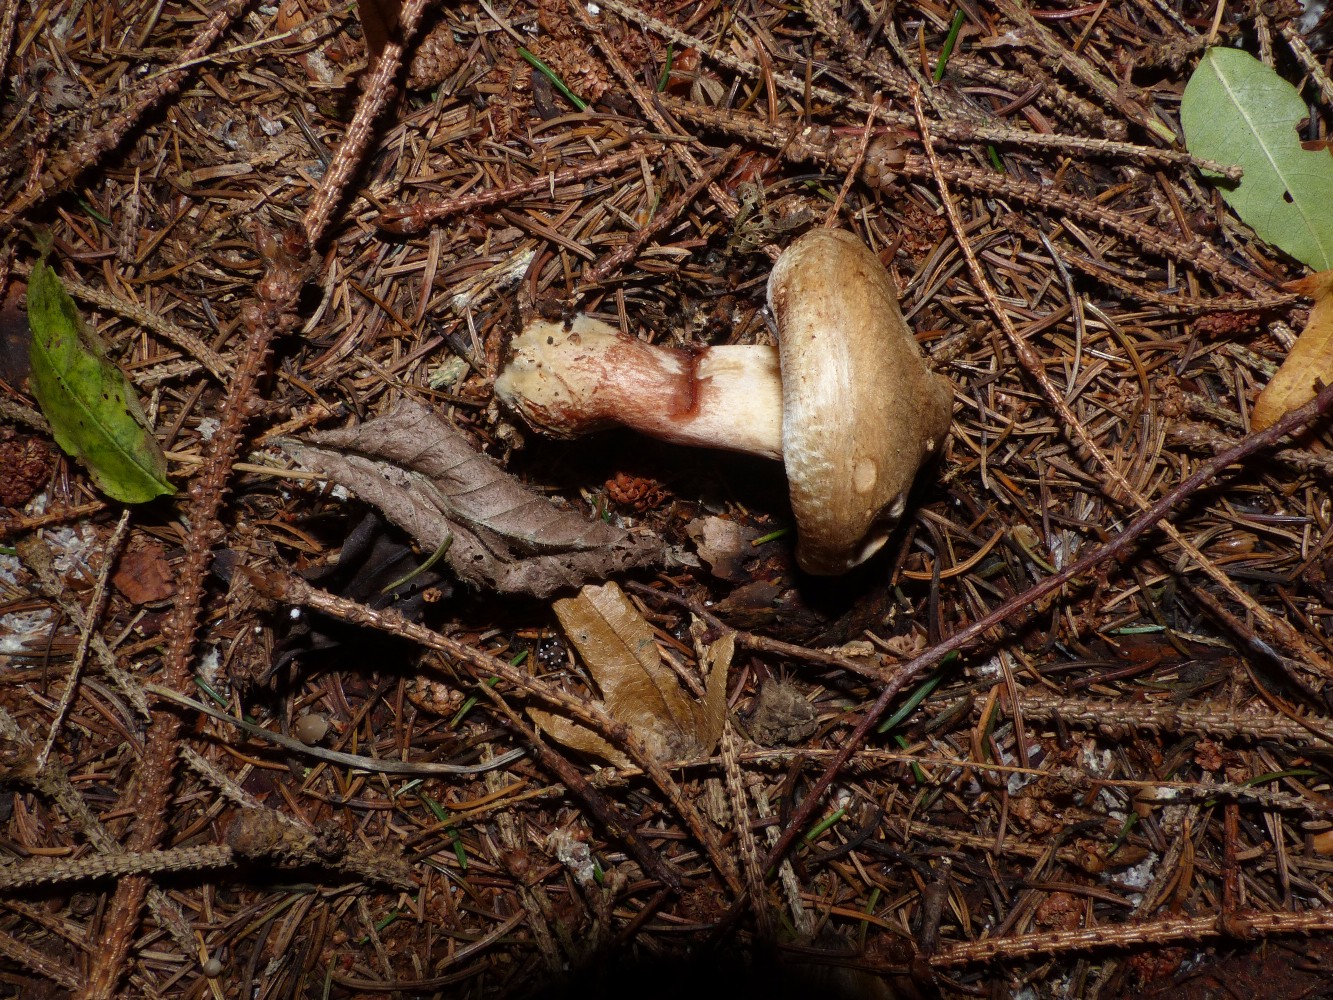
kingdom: Fungi
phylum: Basidiomycota
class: Agaricomycetes
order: Boletales
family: Paxillaceae
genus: Paxillus
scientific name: Paxillus involutus
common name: almindelig netbladhat
